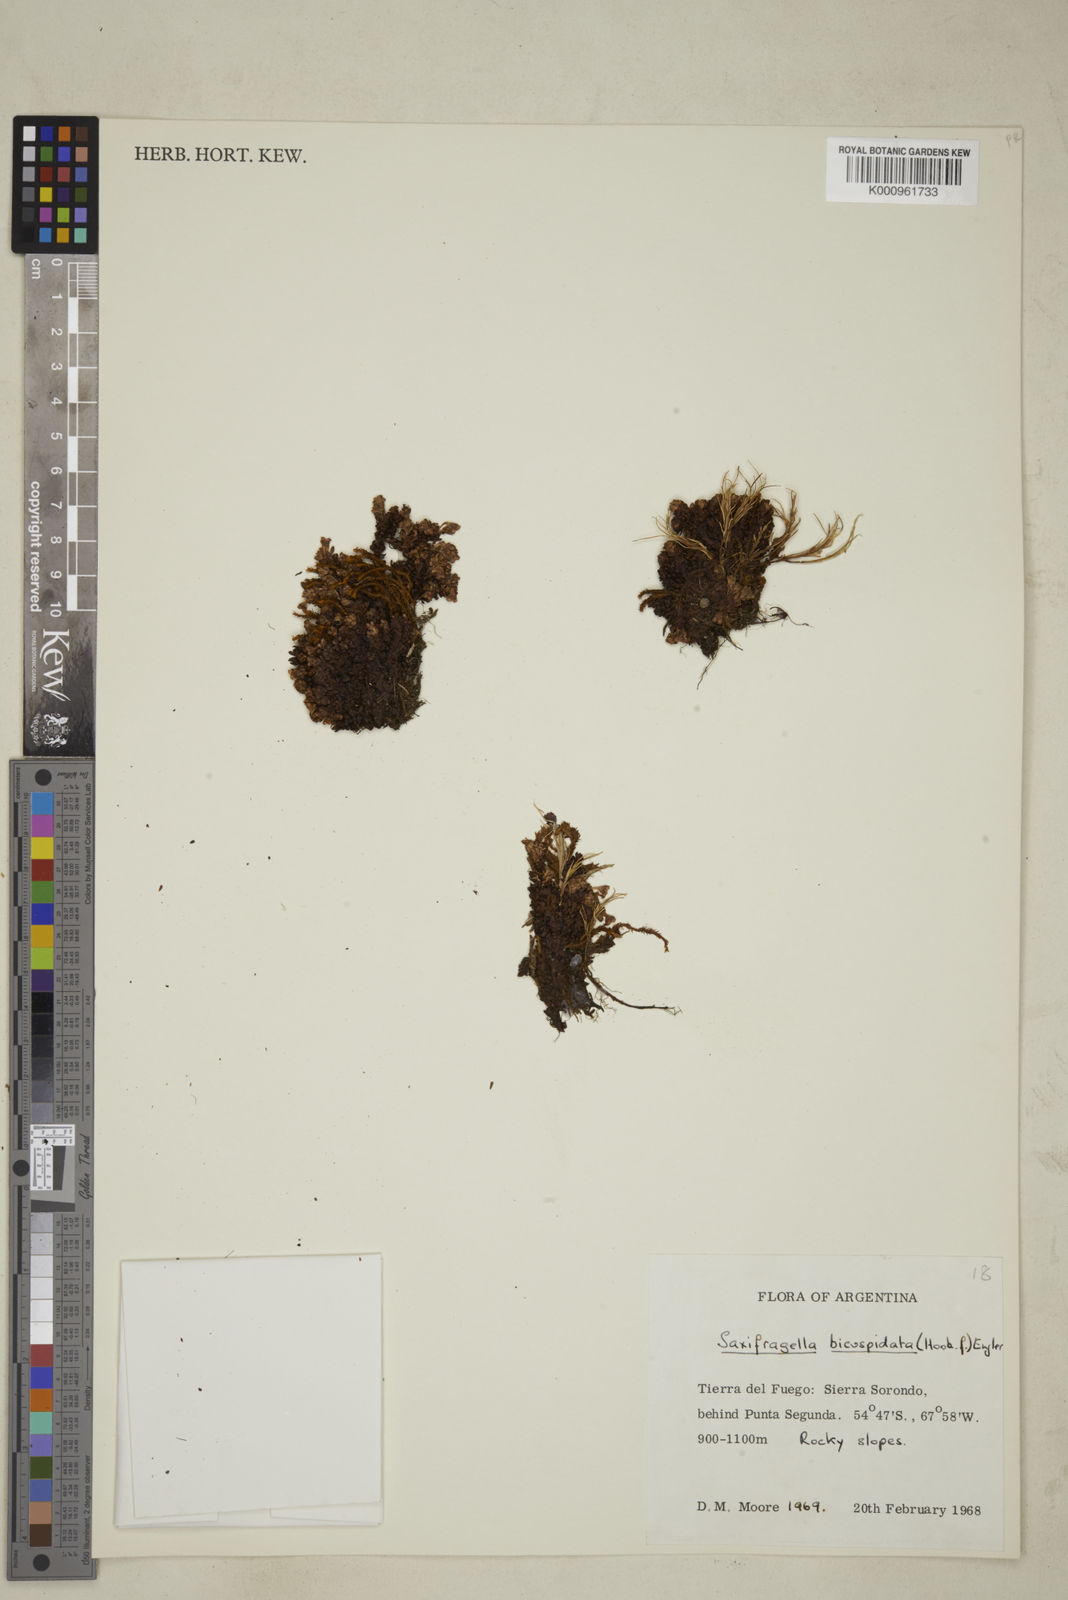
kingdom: Plantae
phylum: Tracheophyta
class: Magnoliopsida
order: Saxifragales
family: Saxifragaceae
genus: Saxifraga
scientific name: Saxifraga bicuspidata
